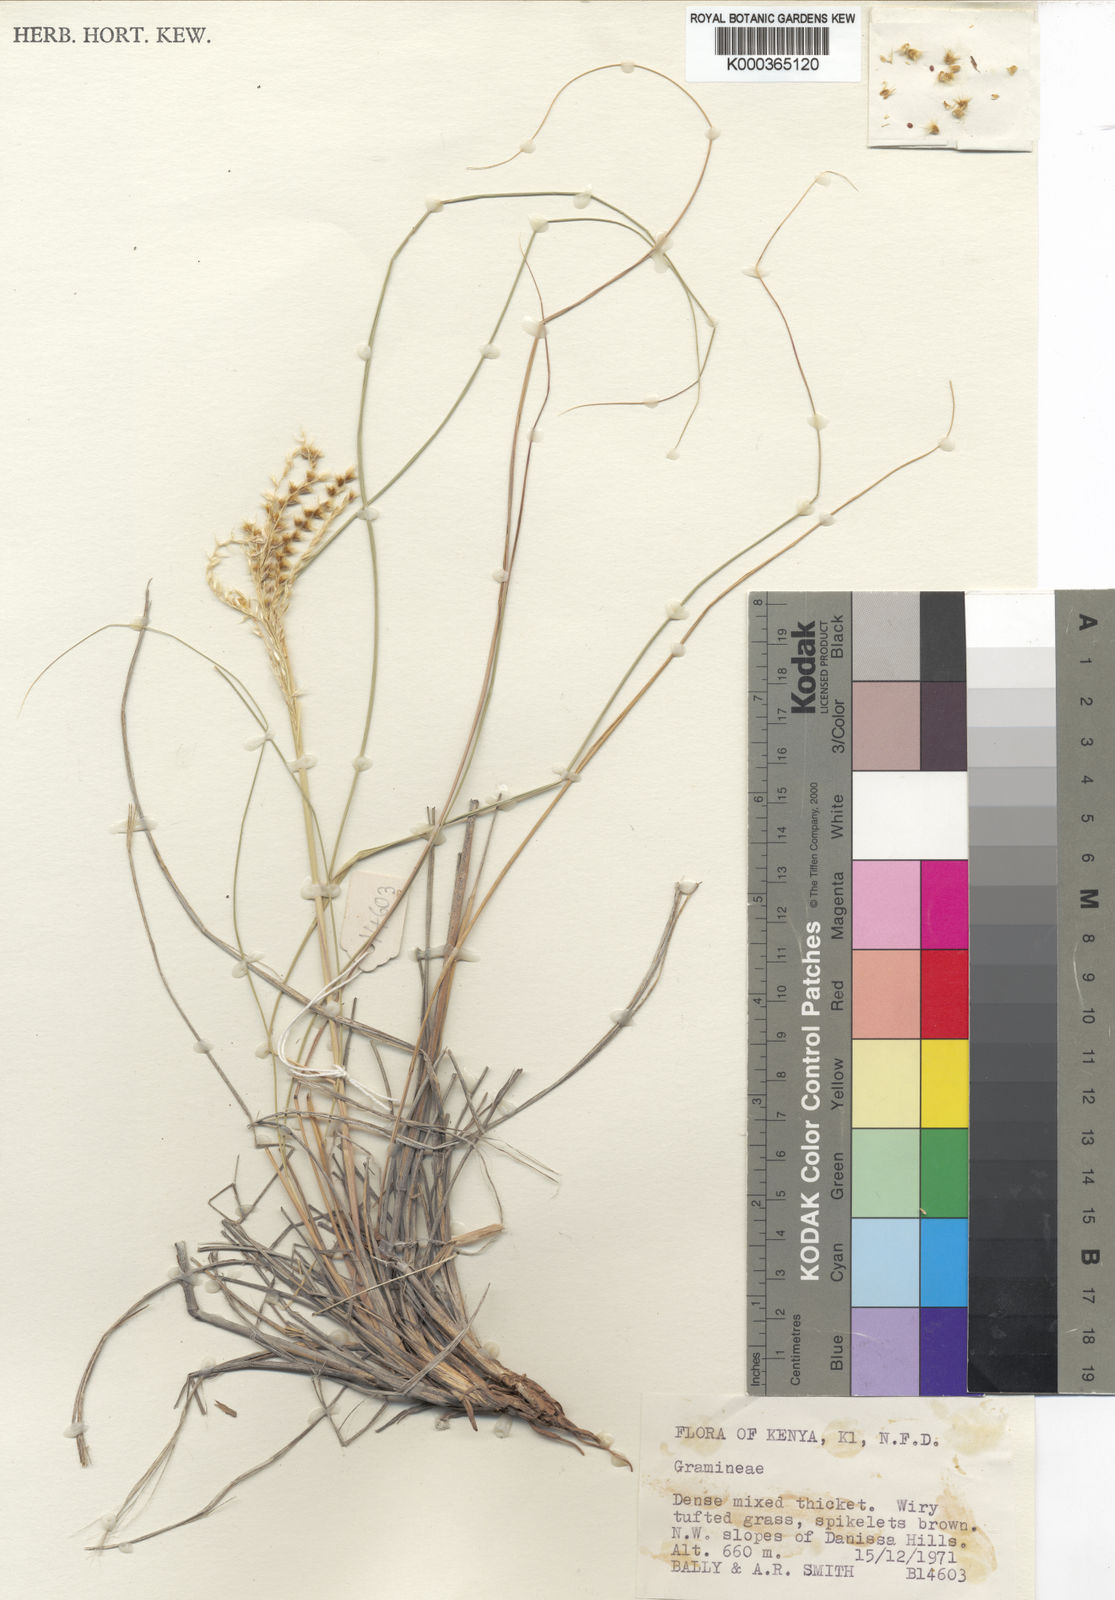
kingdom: Plantae
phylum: Tracheophyta
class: Liliopsida
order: Poales
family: Poaceae
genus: Tetrapogon
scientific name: Tetrapogon ferrugineus
